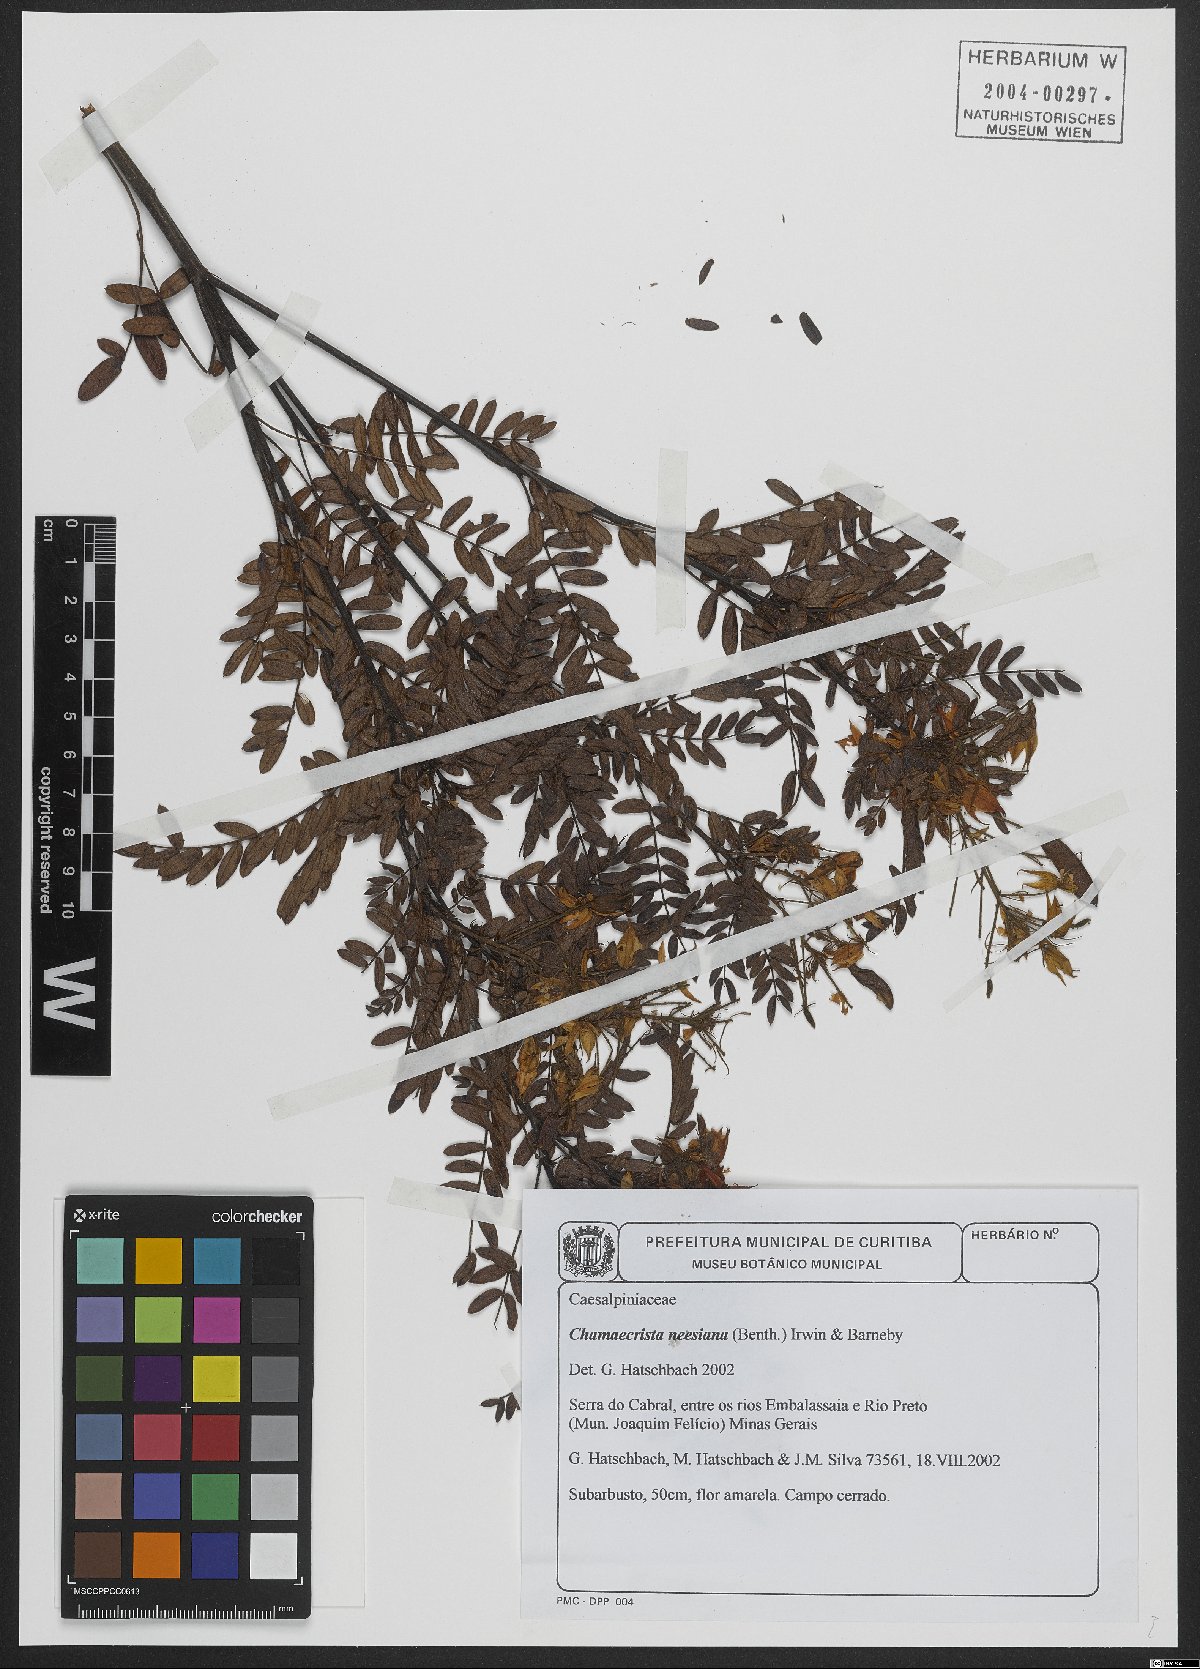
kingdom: Plantae
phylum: Tracheophyta
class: Magnoliopsida
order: Fabales
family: Fabaceae
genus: Chamaecrista
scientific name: Chamaecrista neesiana
